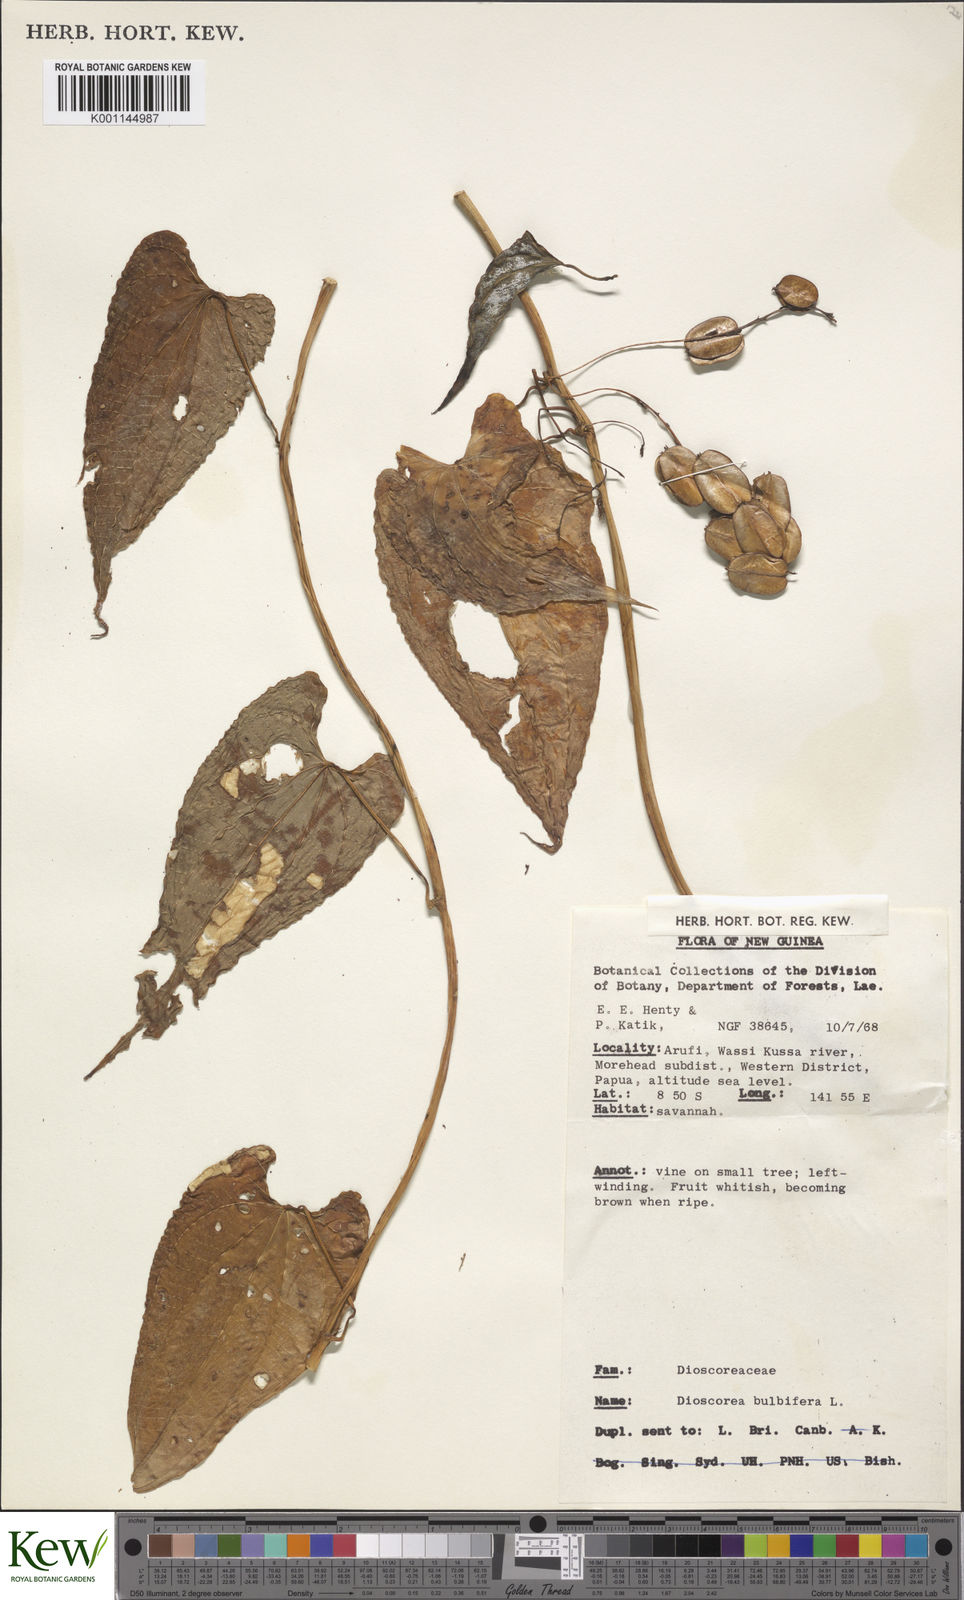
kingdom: Plantae
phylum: Tracheophyta
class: Liliopsida
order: Dioscoreales
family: Dioscoreaceae
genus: Dioscorea
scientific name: Dioscorea bulbifera
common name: Air yam
